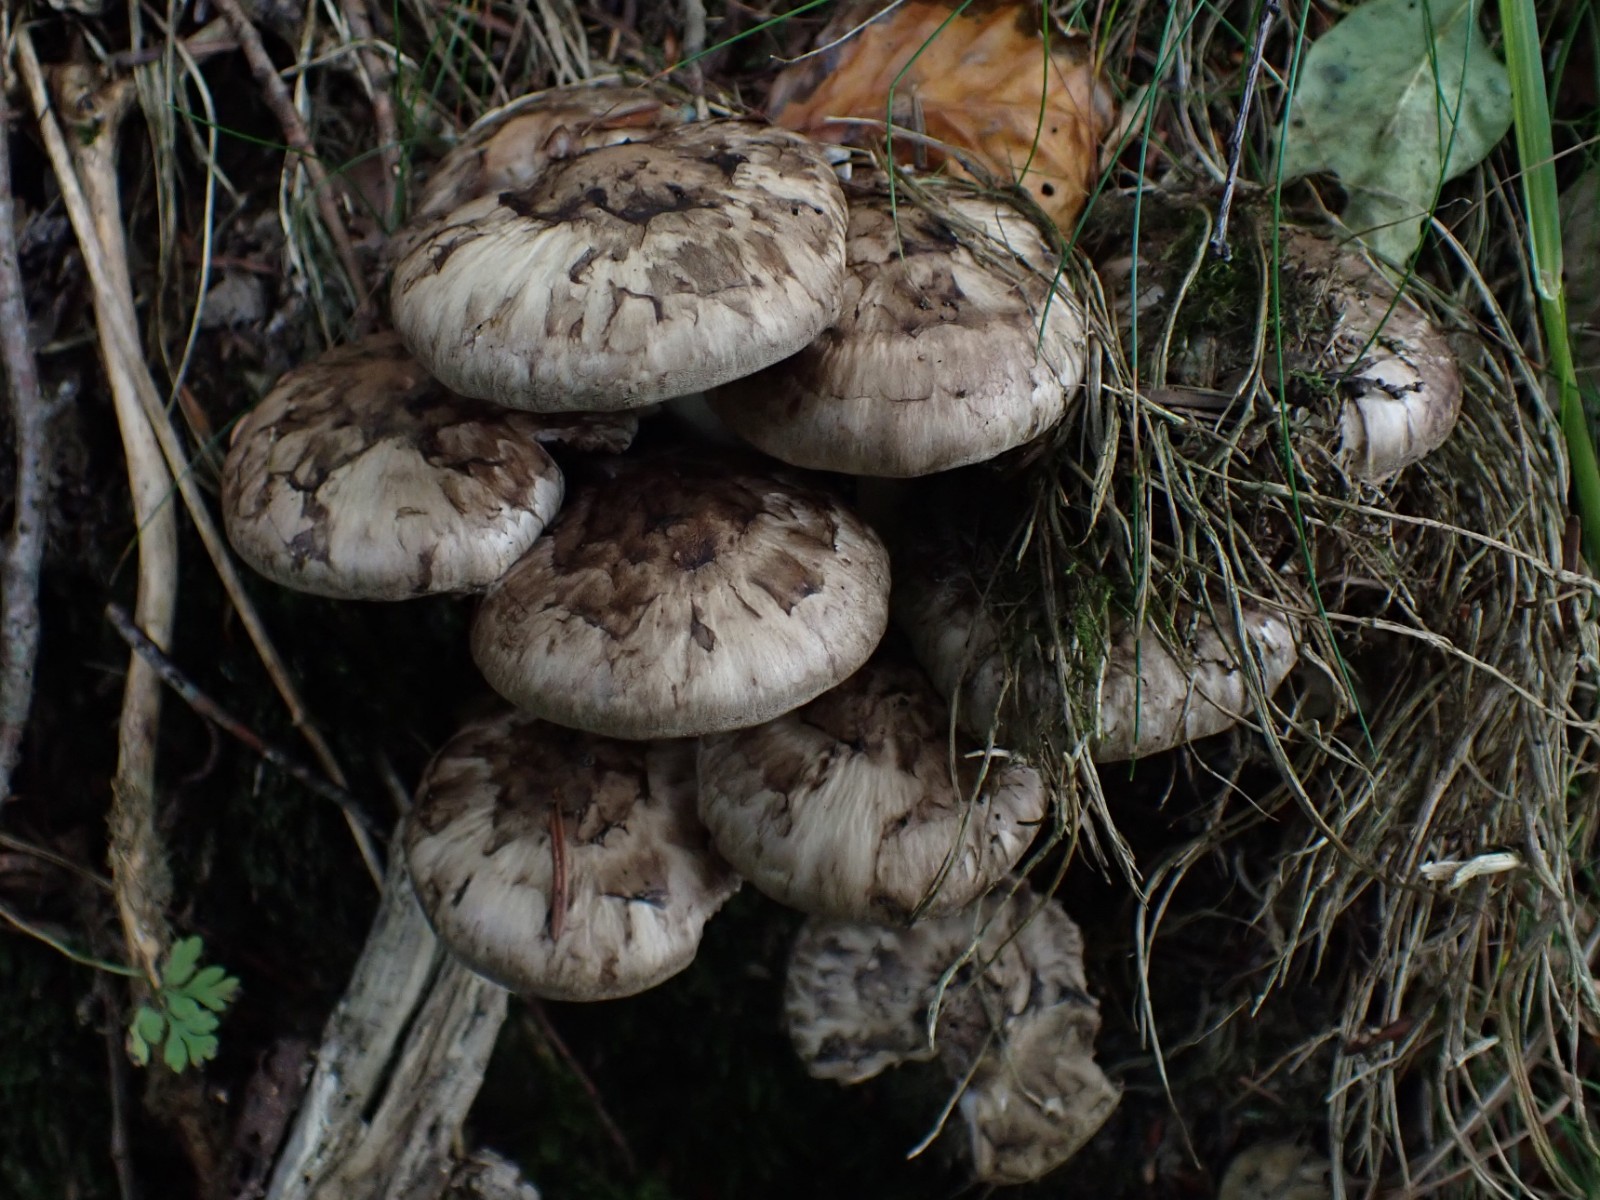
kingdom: Fungi
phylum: Basidiomycota
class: Agaricomycetes
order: Agaricales
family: Psathyrellaceae
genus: Psathyrella
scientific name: Psathyrella cotonea
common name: skællet mørkhat
